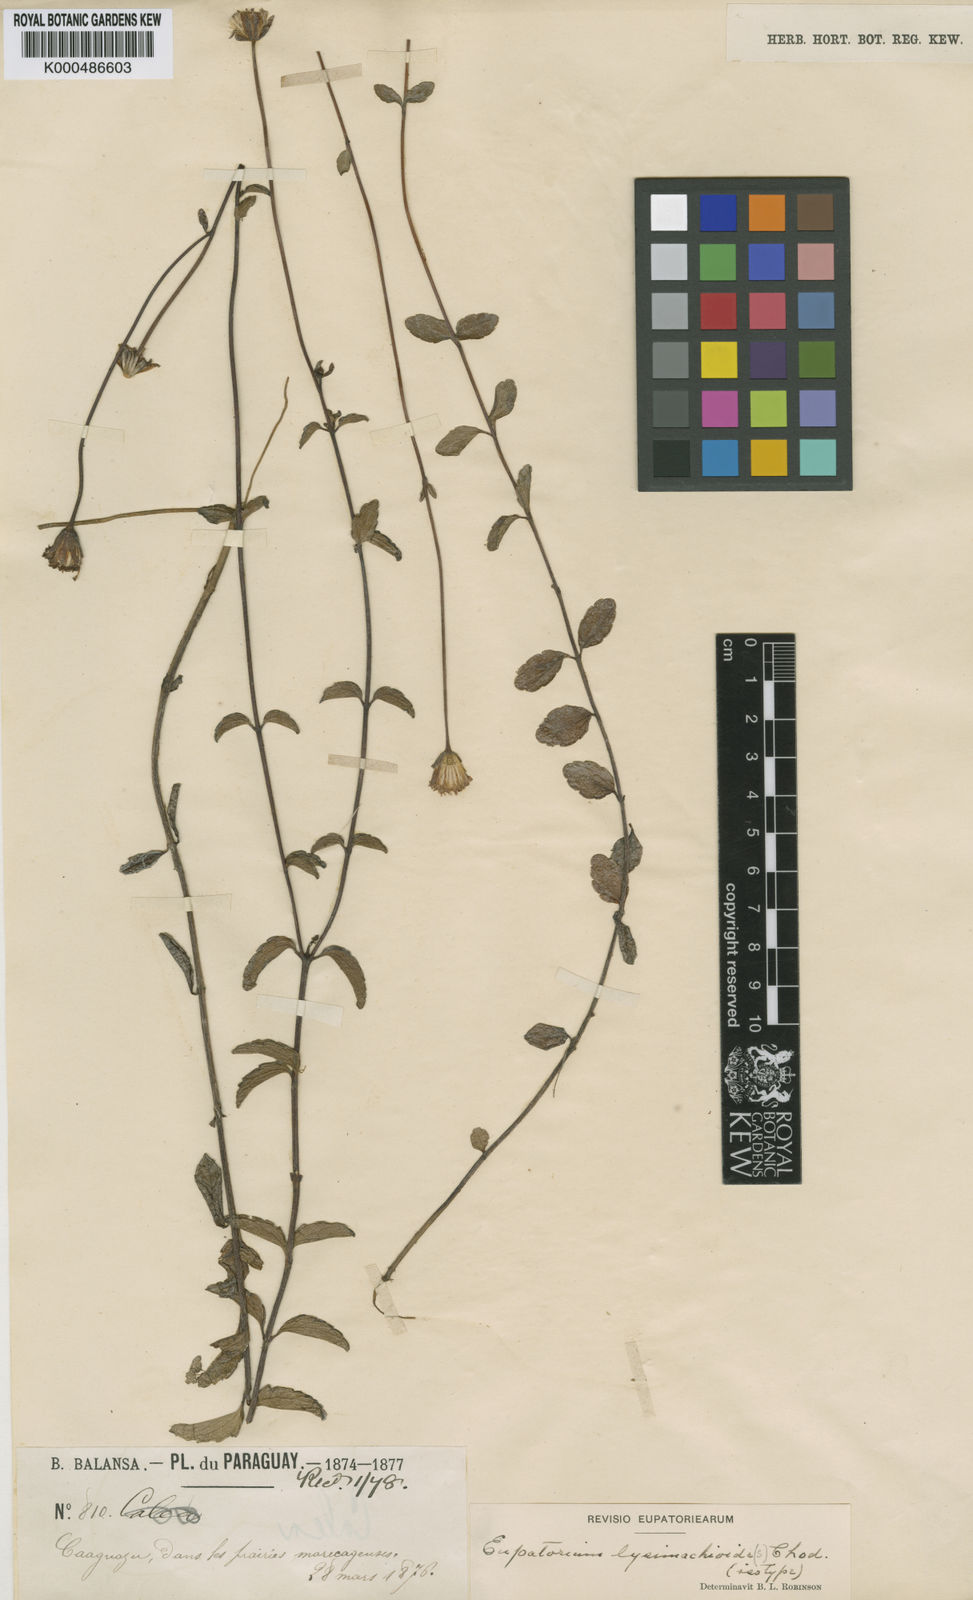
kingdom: Plantae
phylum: Tracheophyta
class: Magnoliopsida
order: Asterales
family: Asteraceae
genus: Heterocondylus
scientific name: Heterocondylus lysimachioides
